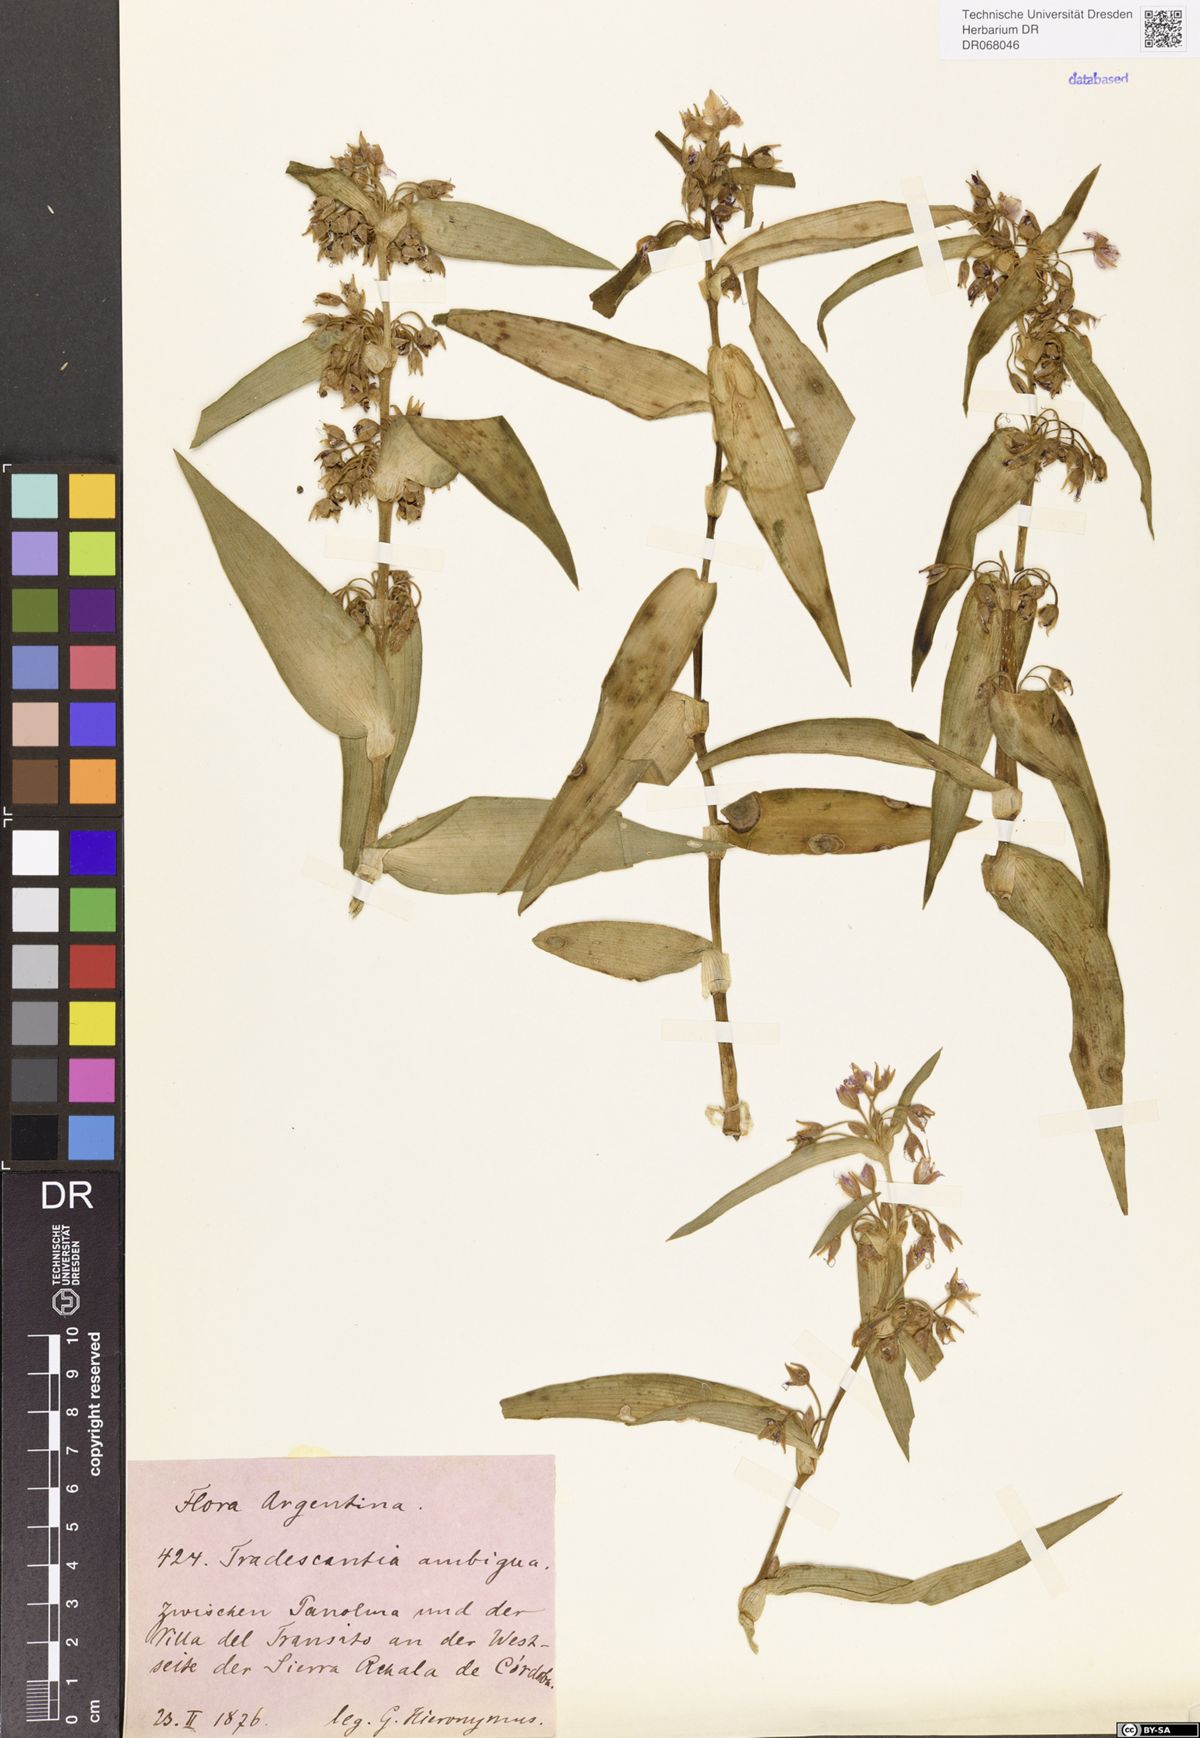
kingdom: Plantae
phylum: Tracheophyta
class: Liliopsida
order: Commelinales
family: Commelinaceae
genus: Tradescantia
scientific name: Tradescantia ambigua
